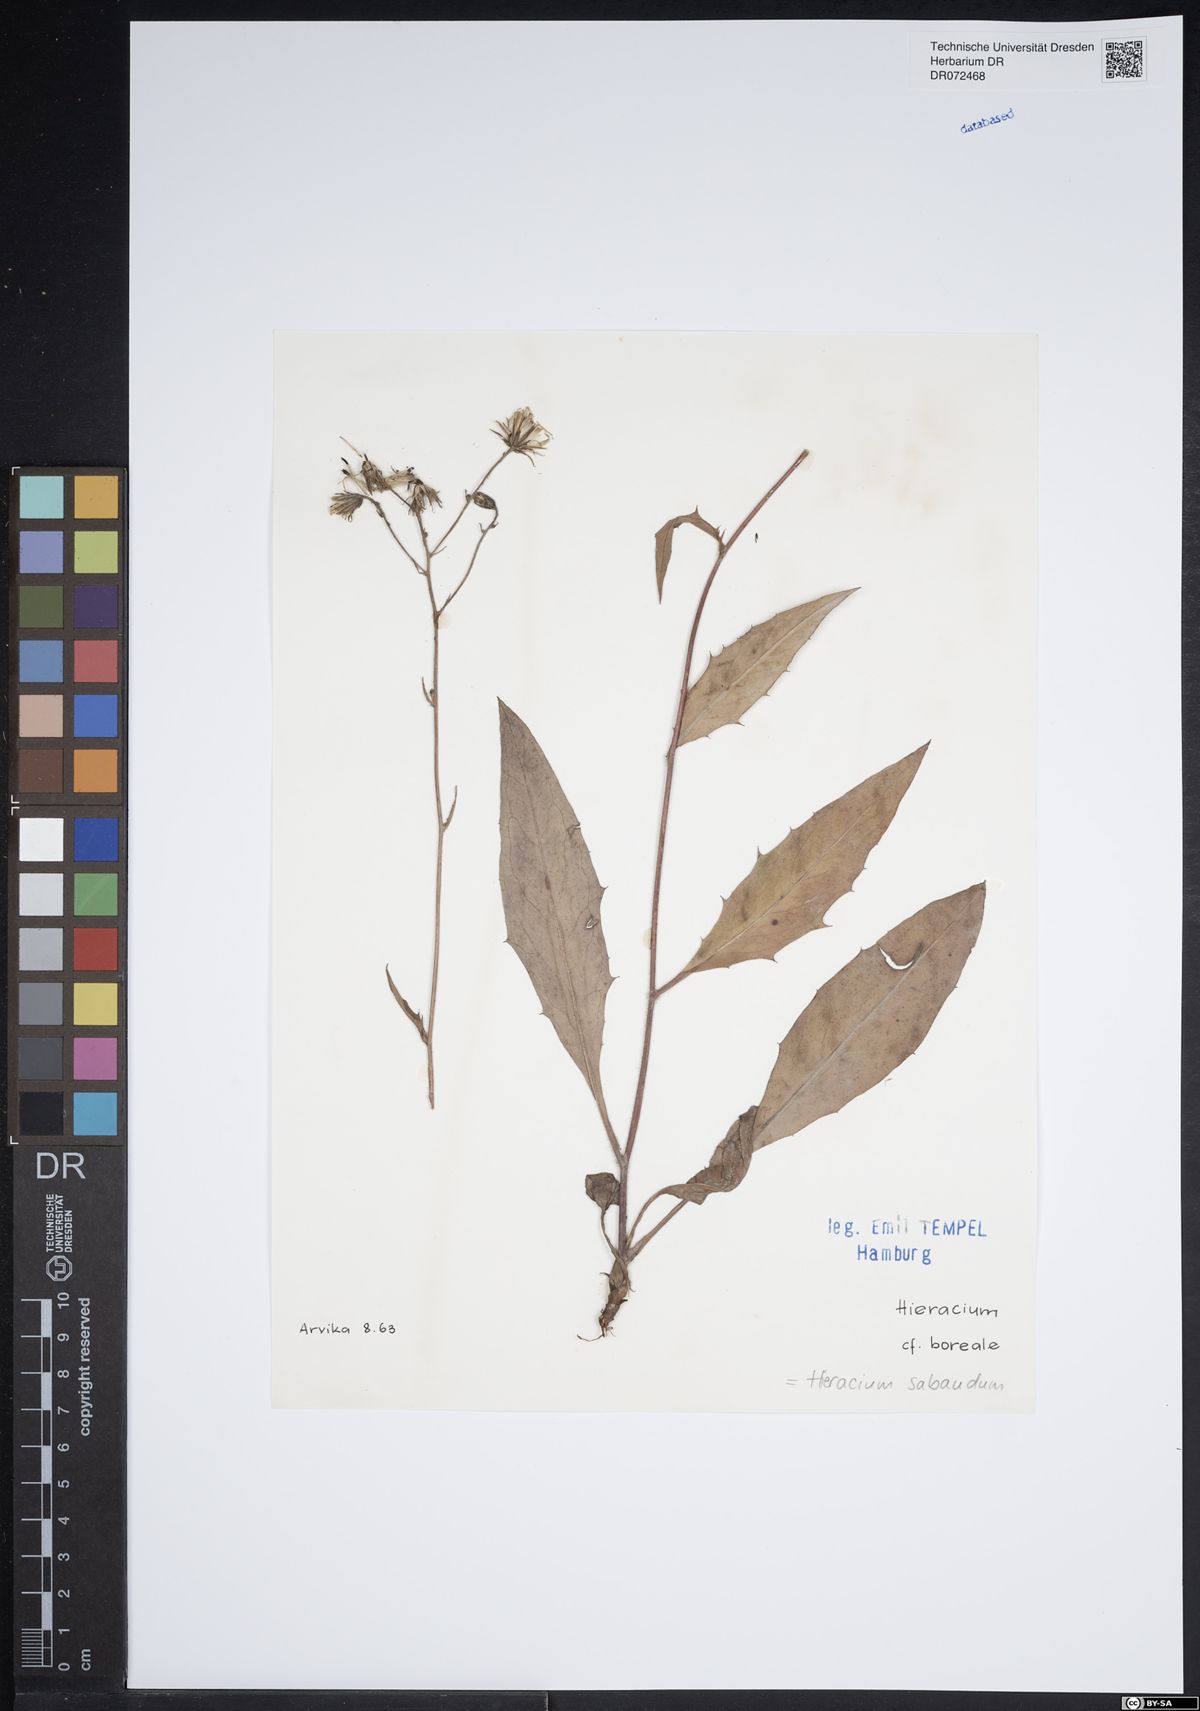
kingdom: Plantae
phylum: Tracheophyta
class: Magnoliopsida
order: Asterales
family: Asteraceae
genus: Hieracium
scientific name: Hieracium sabaudum
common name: New england hawkweed
